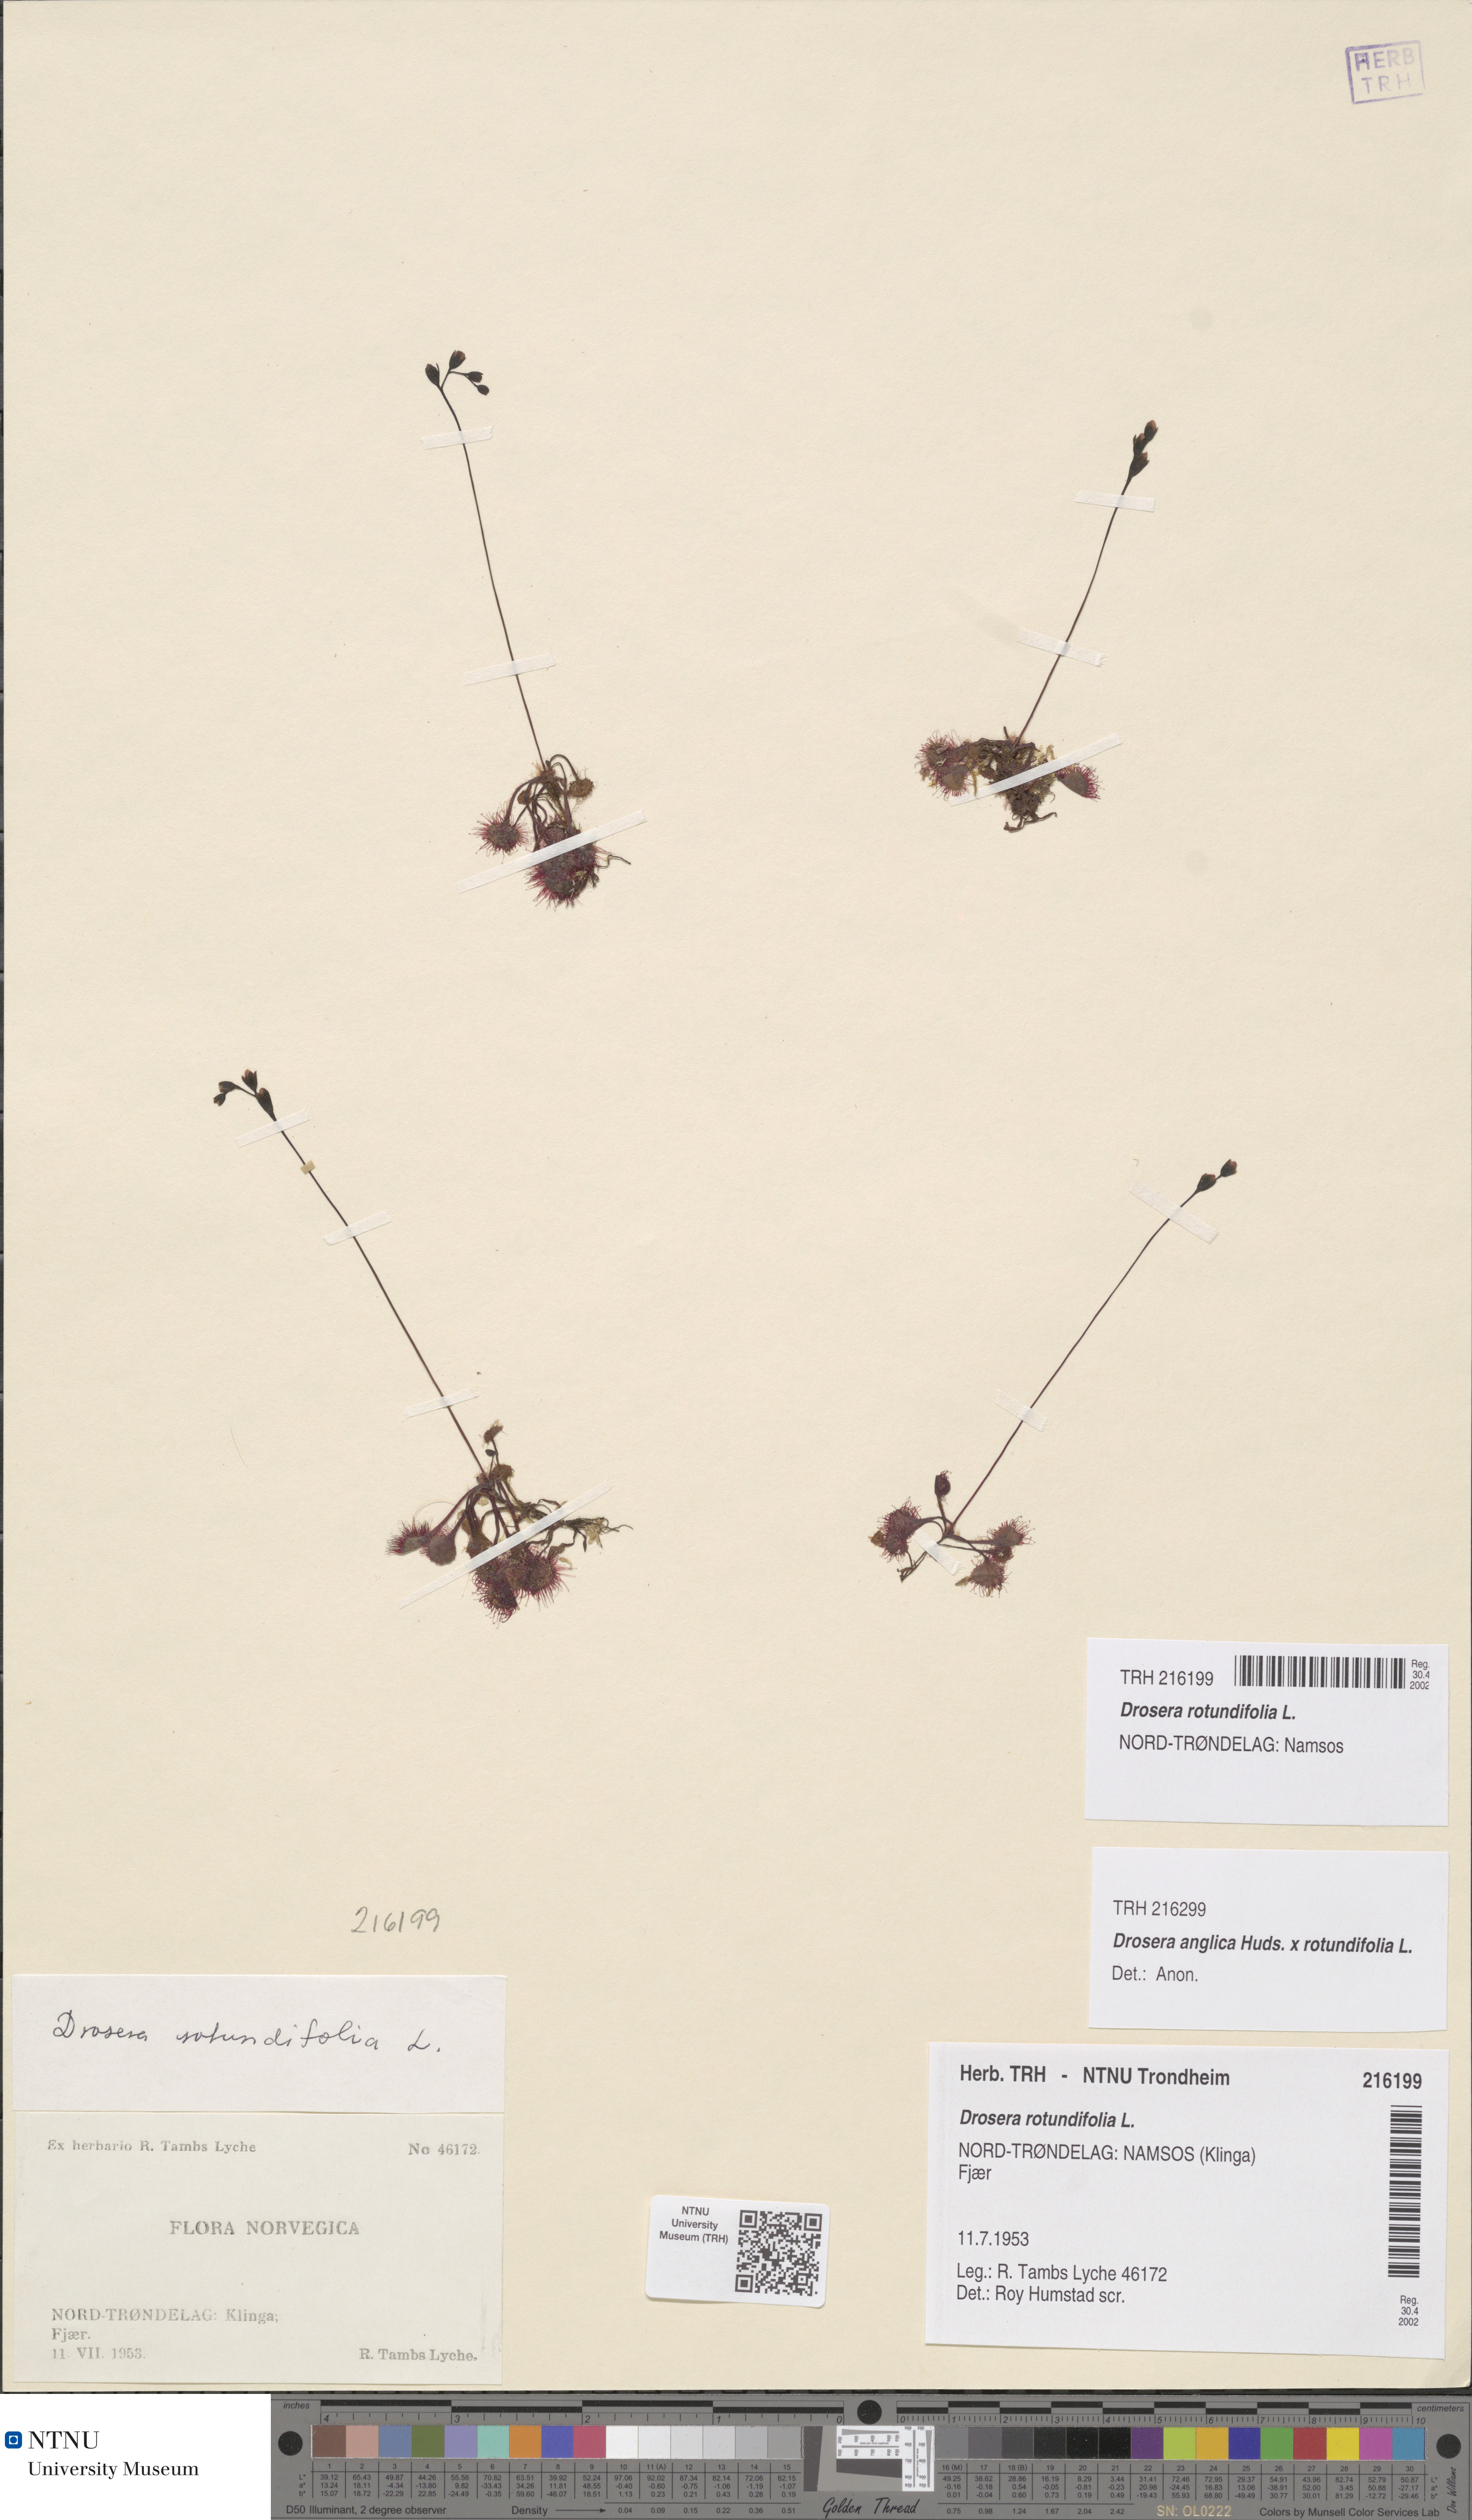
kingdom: Plantae
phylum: Tracheophyta
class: Magnoliopsida
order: Caryophyllales
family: Droseraceae
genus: Drosera
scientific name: Drosera rotundifolia
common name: Round-leaved sundew
